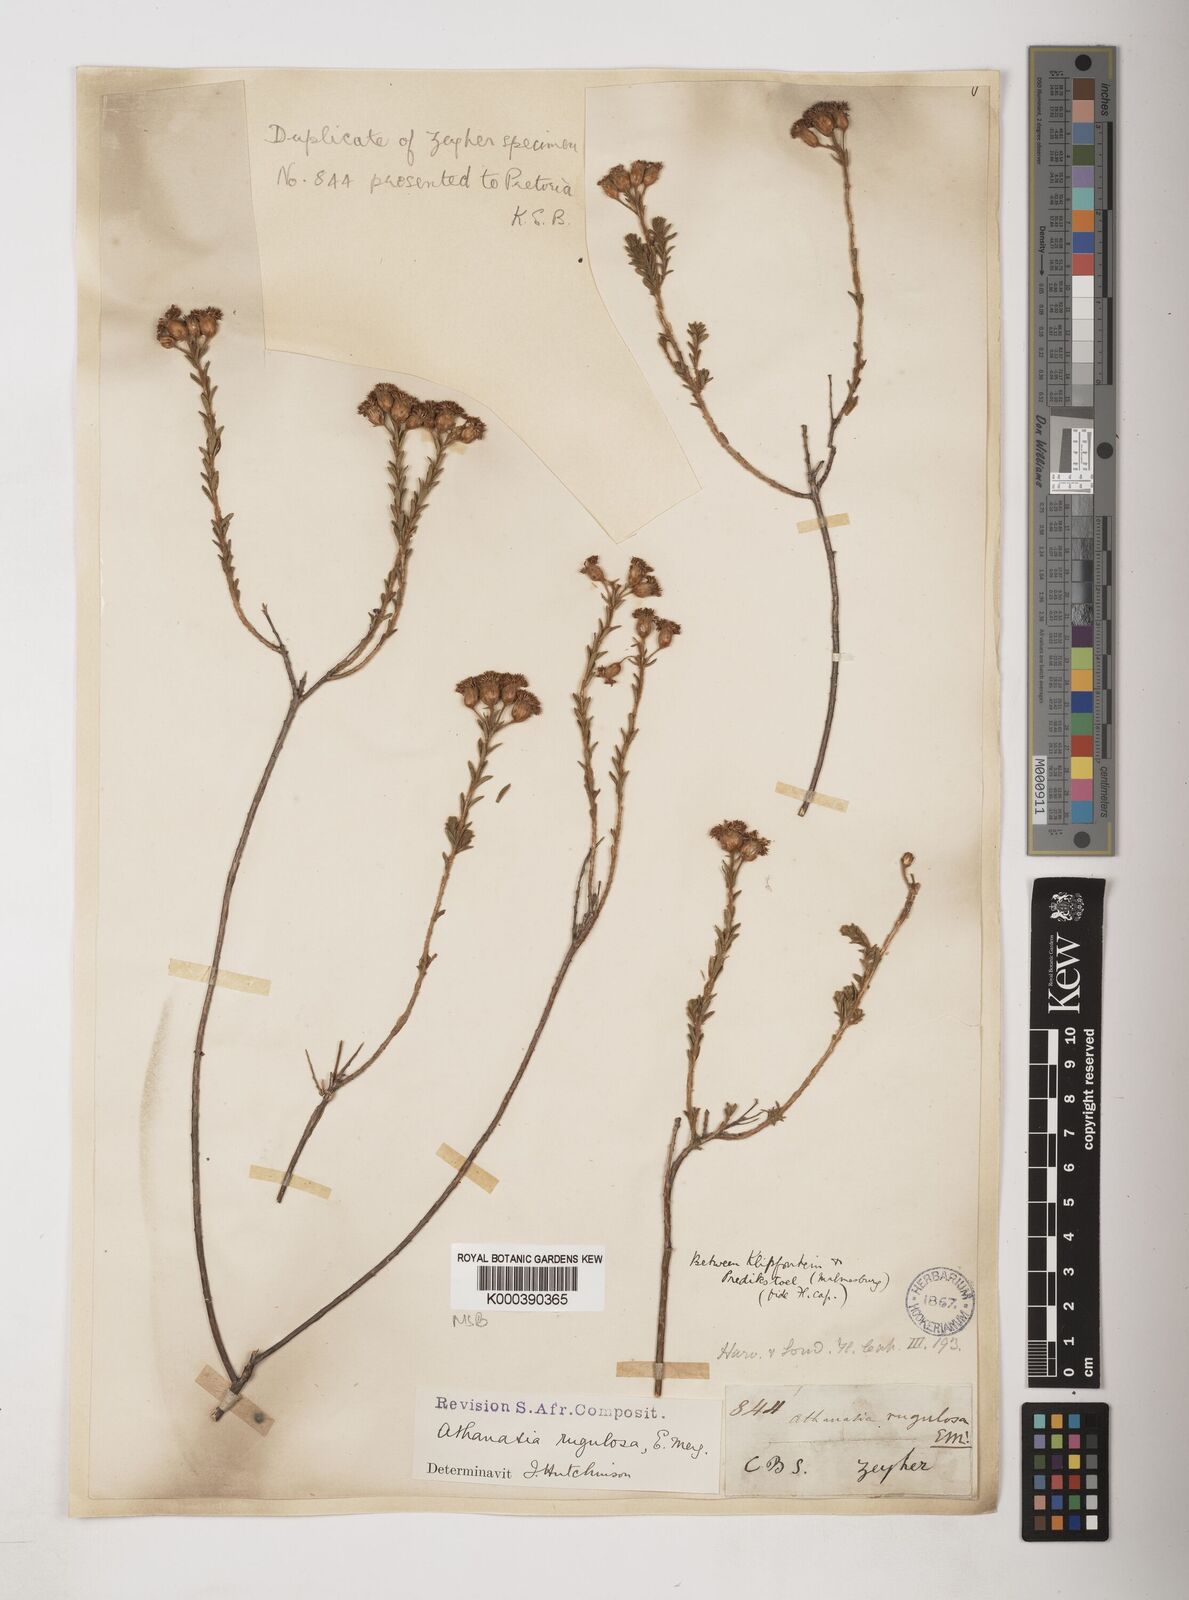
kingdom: Plantae
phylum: Tracheophyta
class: Magnoliopsida
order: Asterales
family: Asteraceae
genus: Athanasia
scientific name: Athanasia rugulosa
